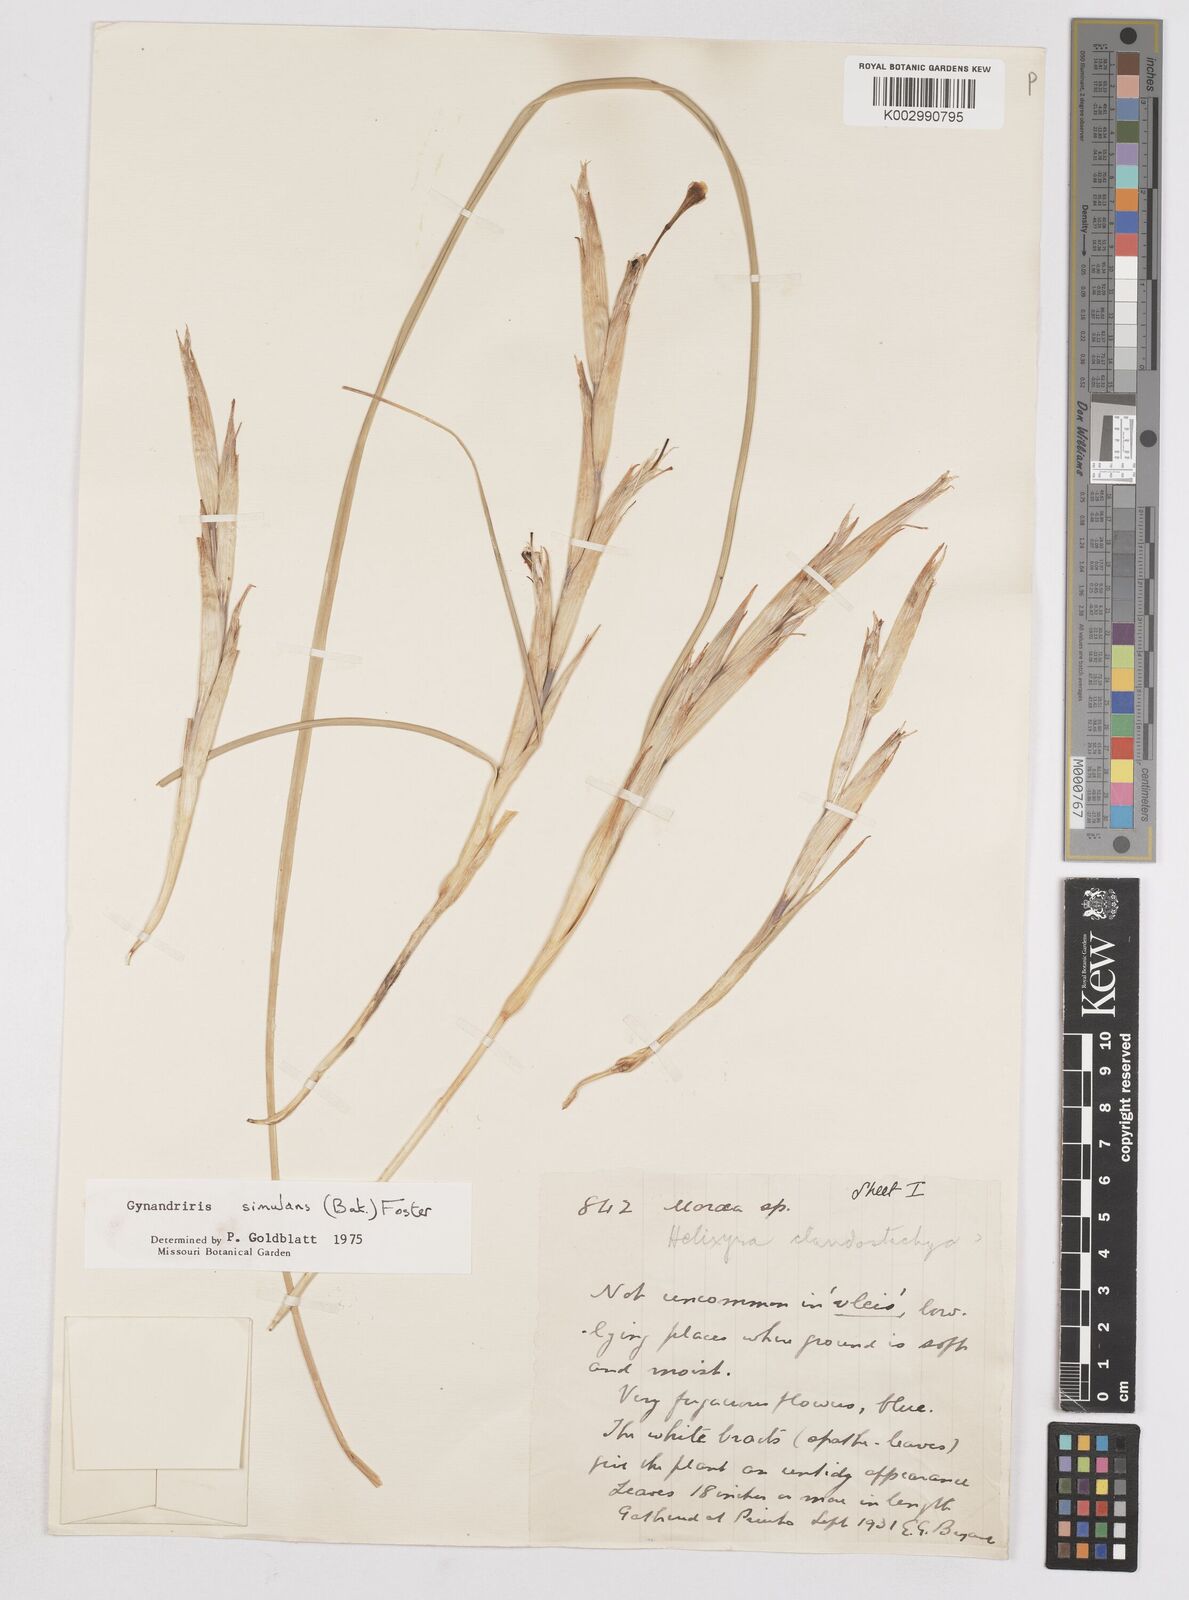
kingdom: Plantae
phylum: Tracheophyta
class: Liliopsida
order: Asparagales
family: Iridaceae
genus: Moraea
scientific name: Moraea simulans
